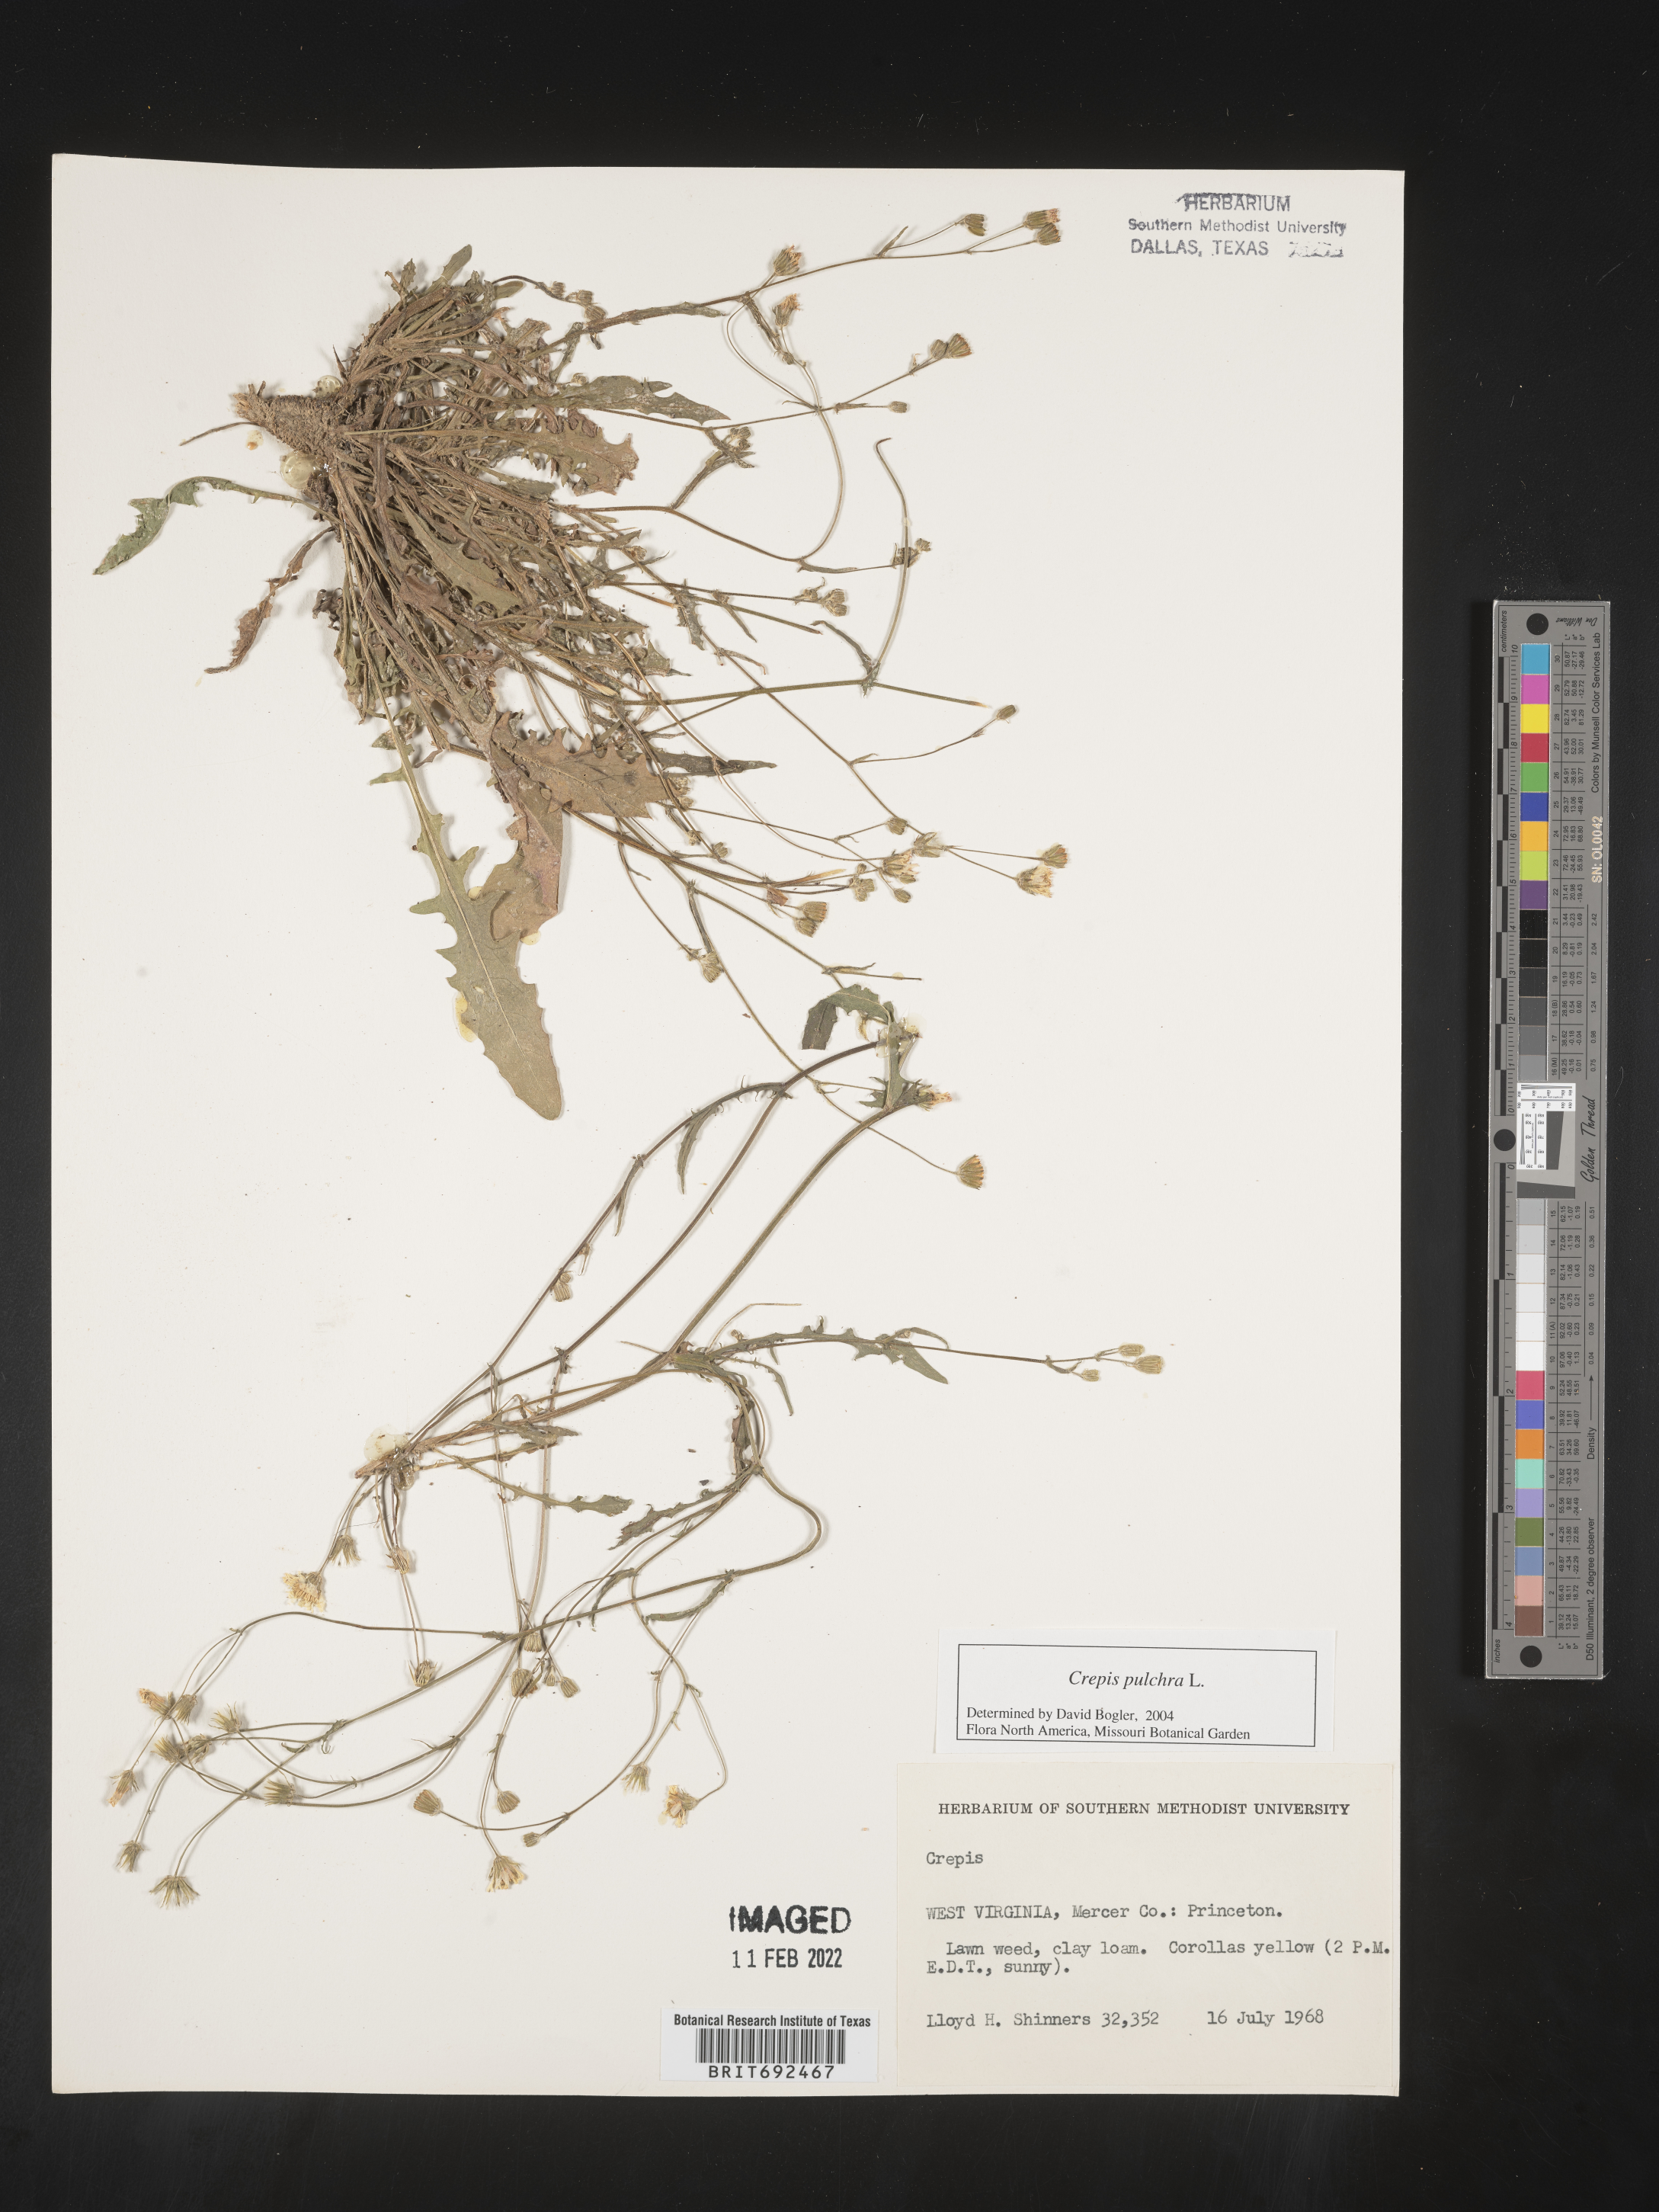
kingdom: Plantae
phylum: Tracheophyta
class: Magnoliopsida
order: Asterales
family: Asteraceae
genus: Crepis
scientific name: Crepis pulchra
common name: Hawk's-beard
